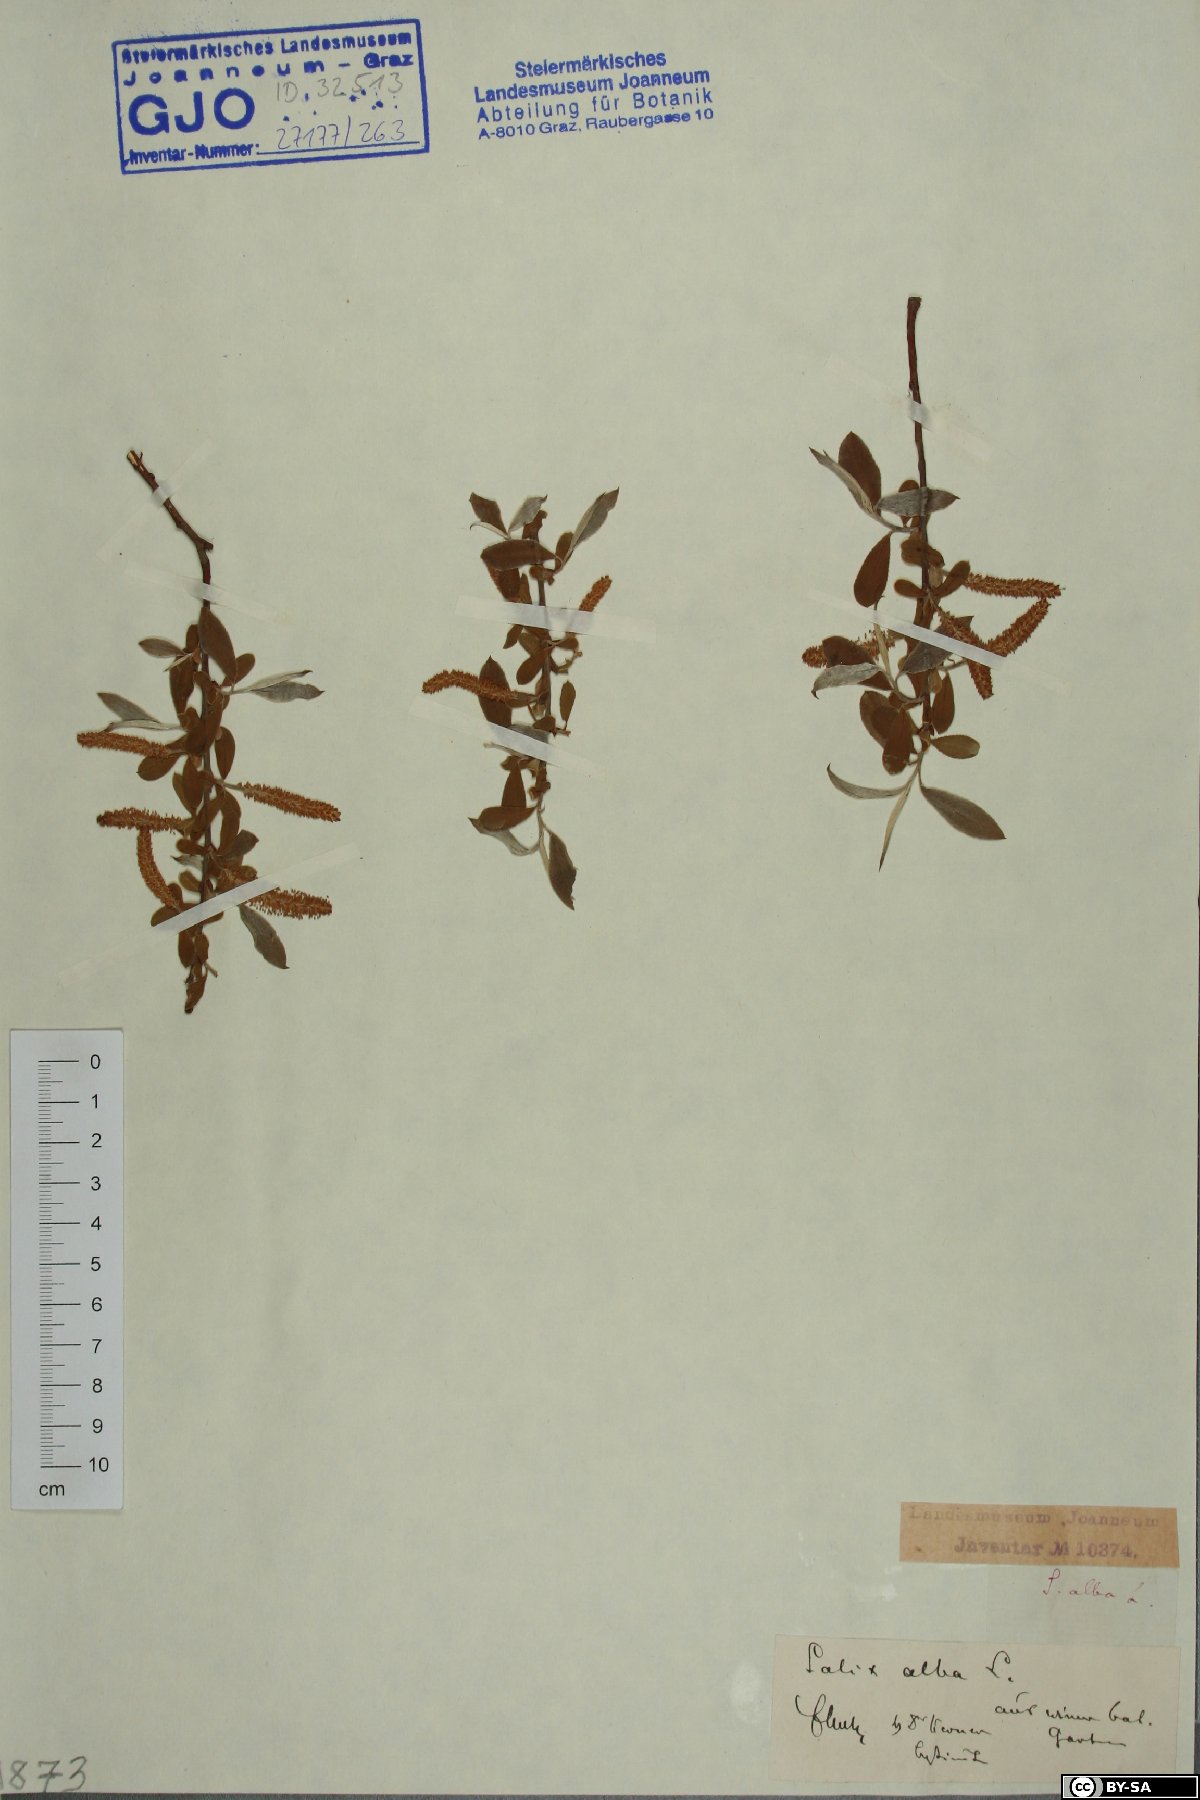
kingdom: Plantae
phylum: Tracheophyta
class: Magnoliopsida
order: Malpighiales
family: Salicaceae
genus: Salix
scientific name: Salix alba
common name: White willow
